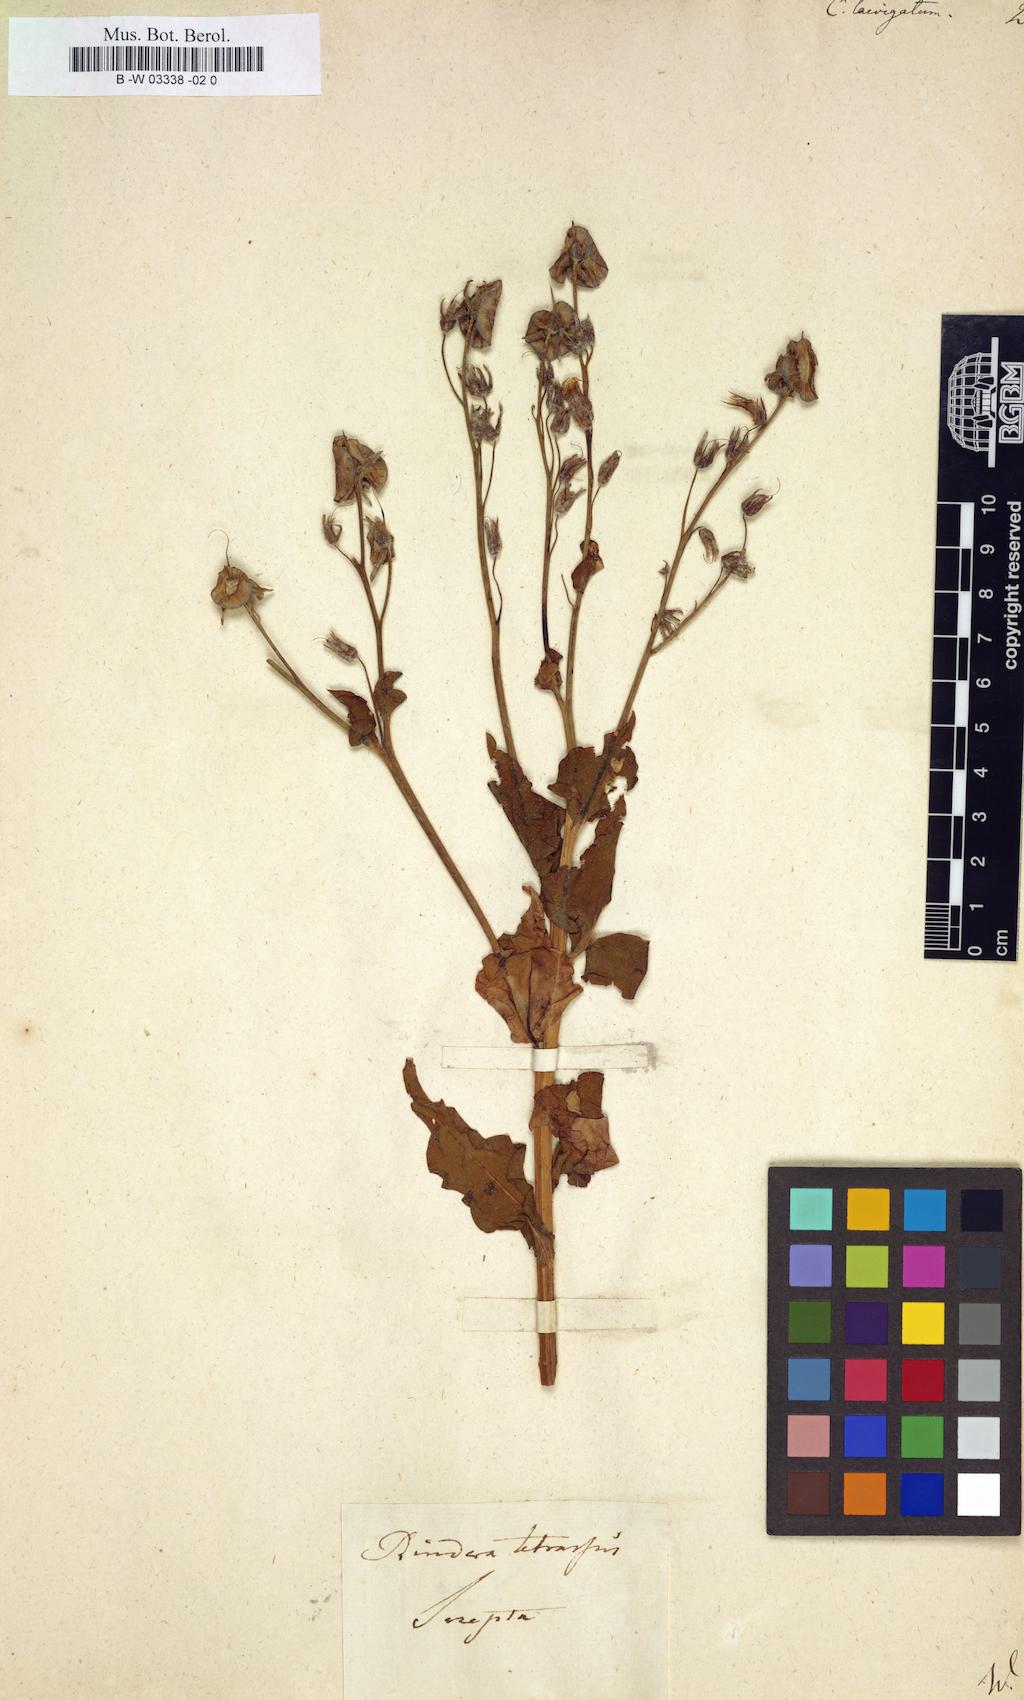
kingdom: Plantae
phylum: Tracheophyta
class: Magnoliopsida
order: Boraginales
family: Boraginaceae
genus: Rindera
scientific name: Rindera tetraspis
